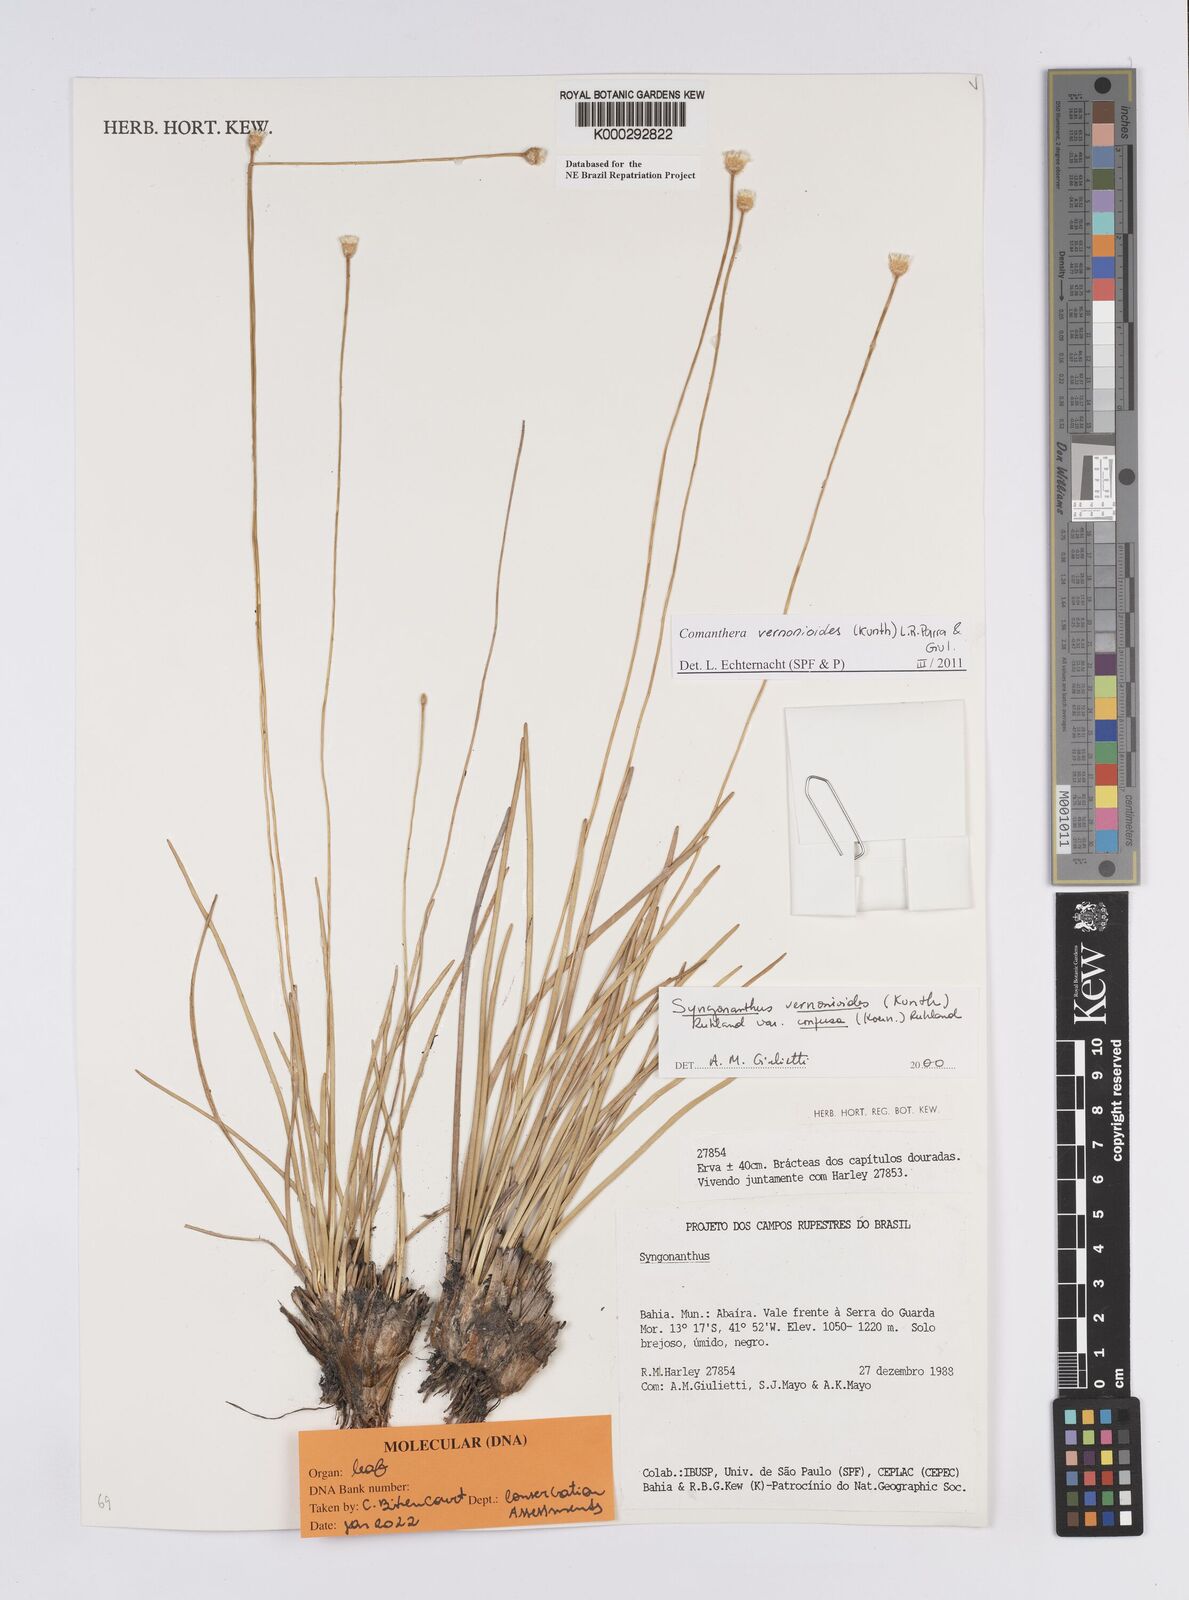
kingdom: Plantae
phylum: Tracheophyta
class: Liliopsida
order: Poales
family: Eriocaulaceae
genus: Comanthera
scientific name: Comanthera centauroides
